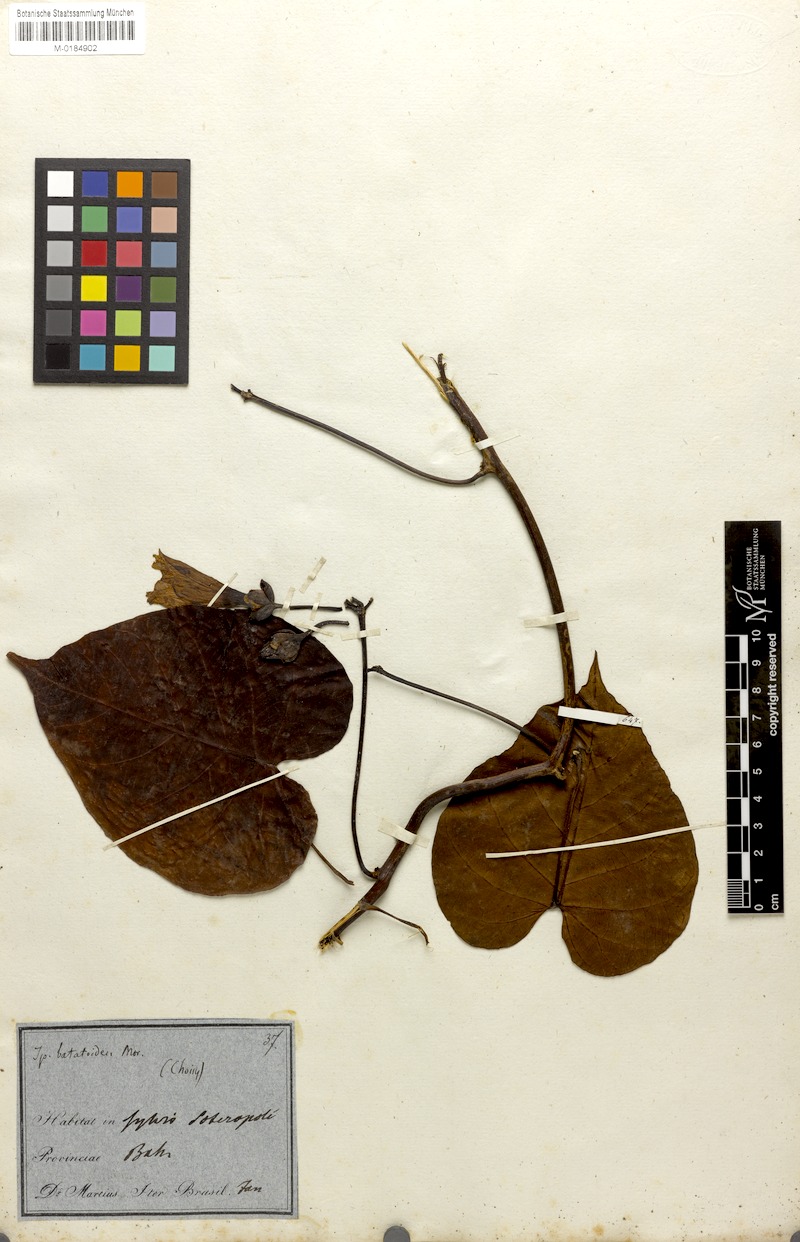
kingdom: Plantae
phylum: Tracheophyta
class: Magnoliopsida
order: Solanales
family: Convolvulaceae
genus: Ipomoea
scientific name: Ipomoea batatoides
